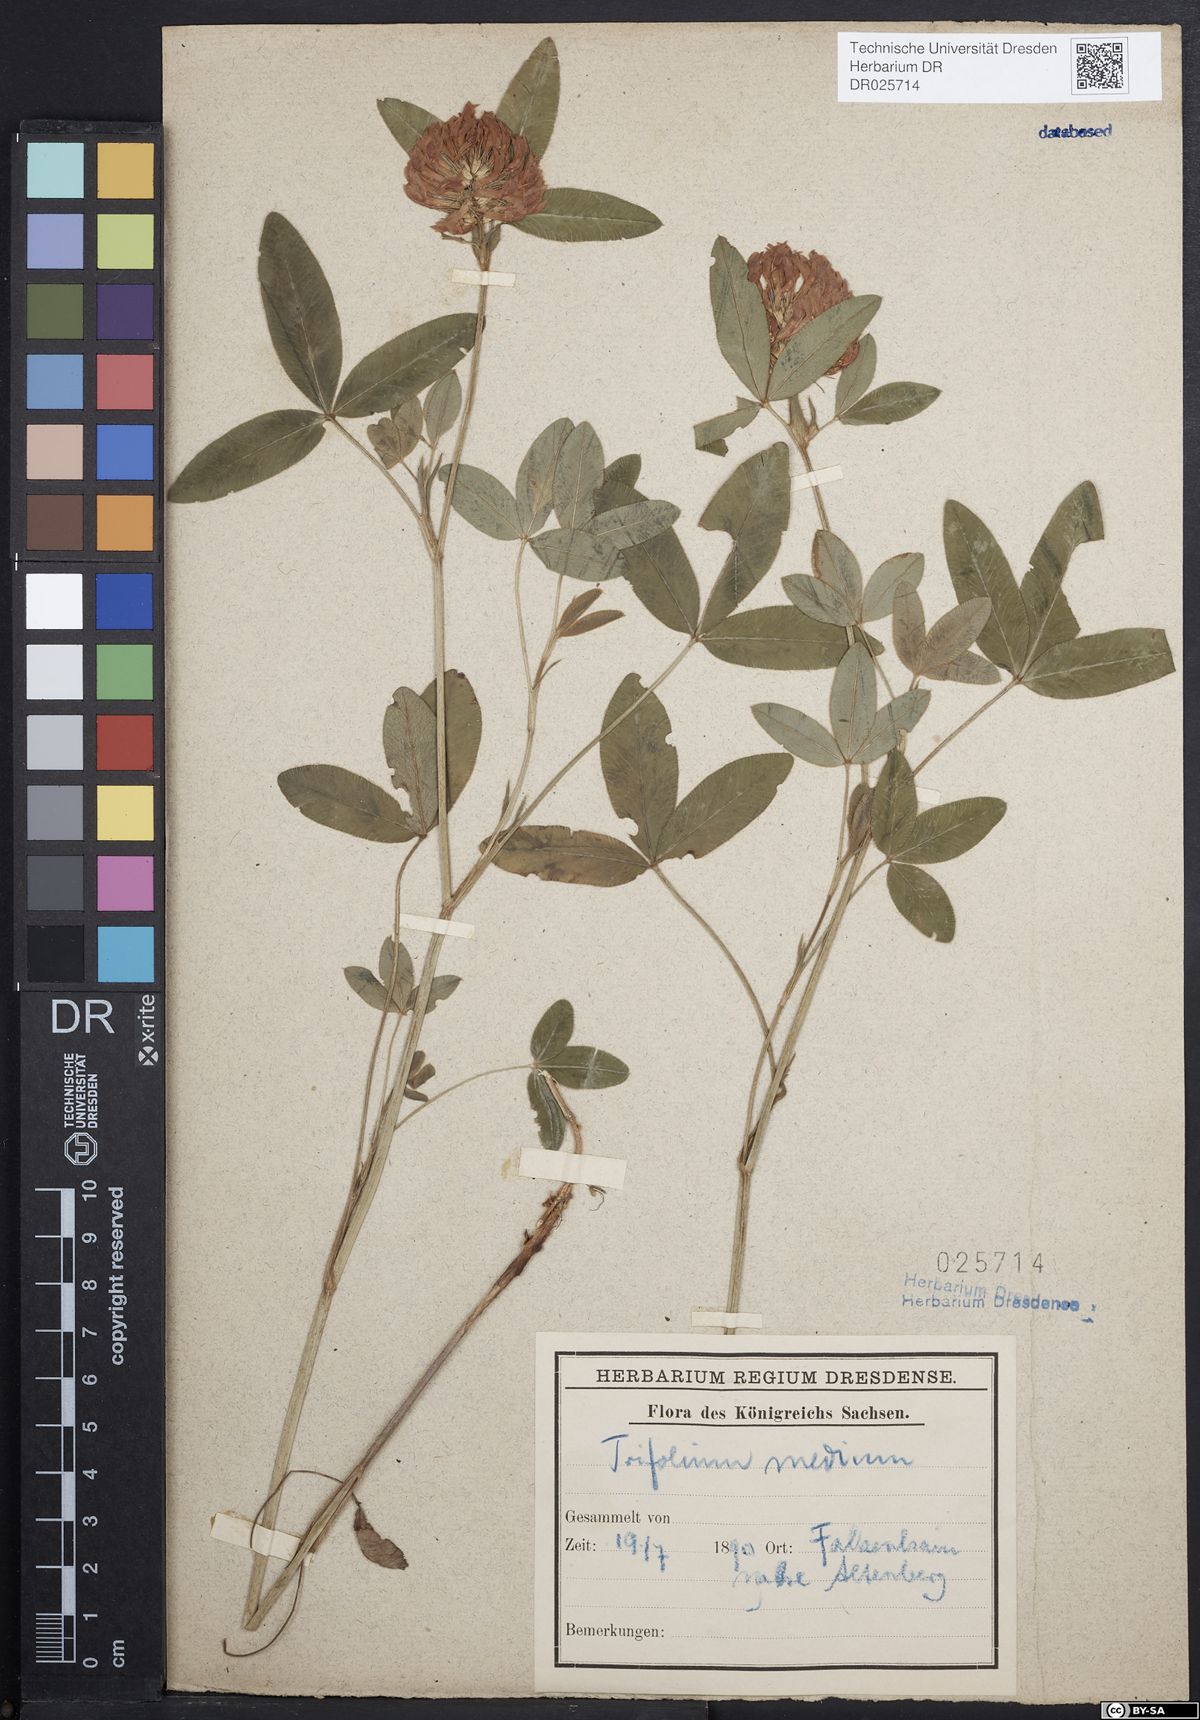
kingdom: Plantae
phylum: Tracheophyta
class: Magnoliopsida
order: Fabales
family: Fabaceae
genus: Trifolium
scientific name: Trifolium medium
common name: Zigzag clover
